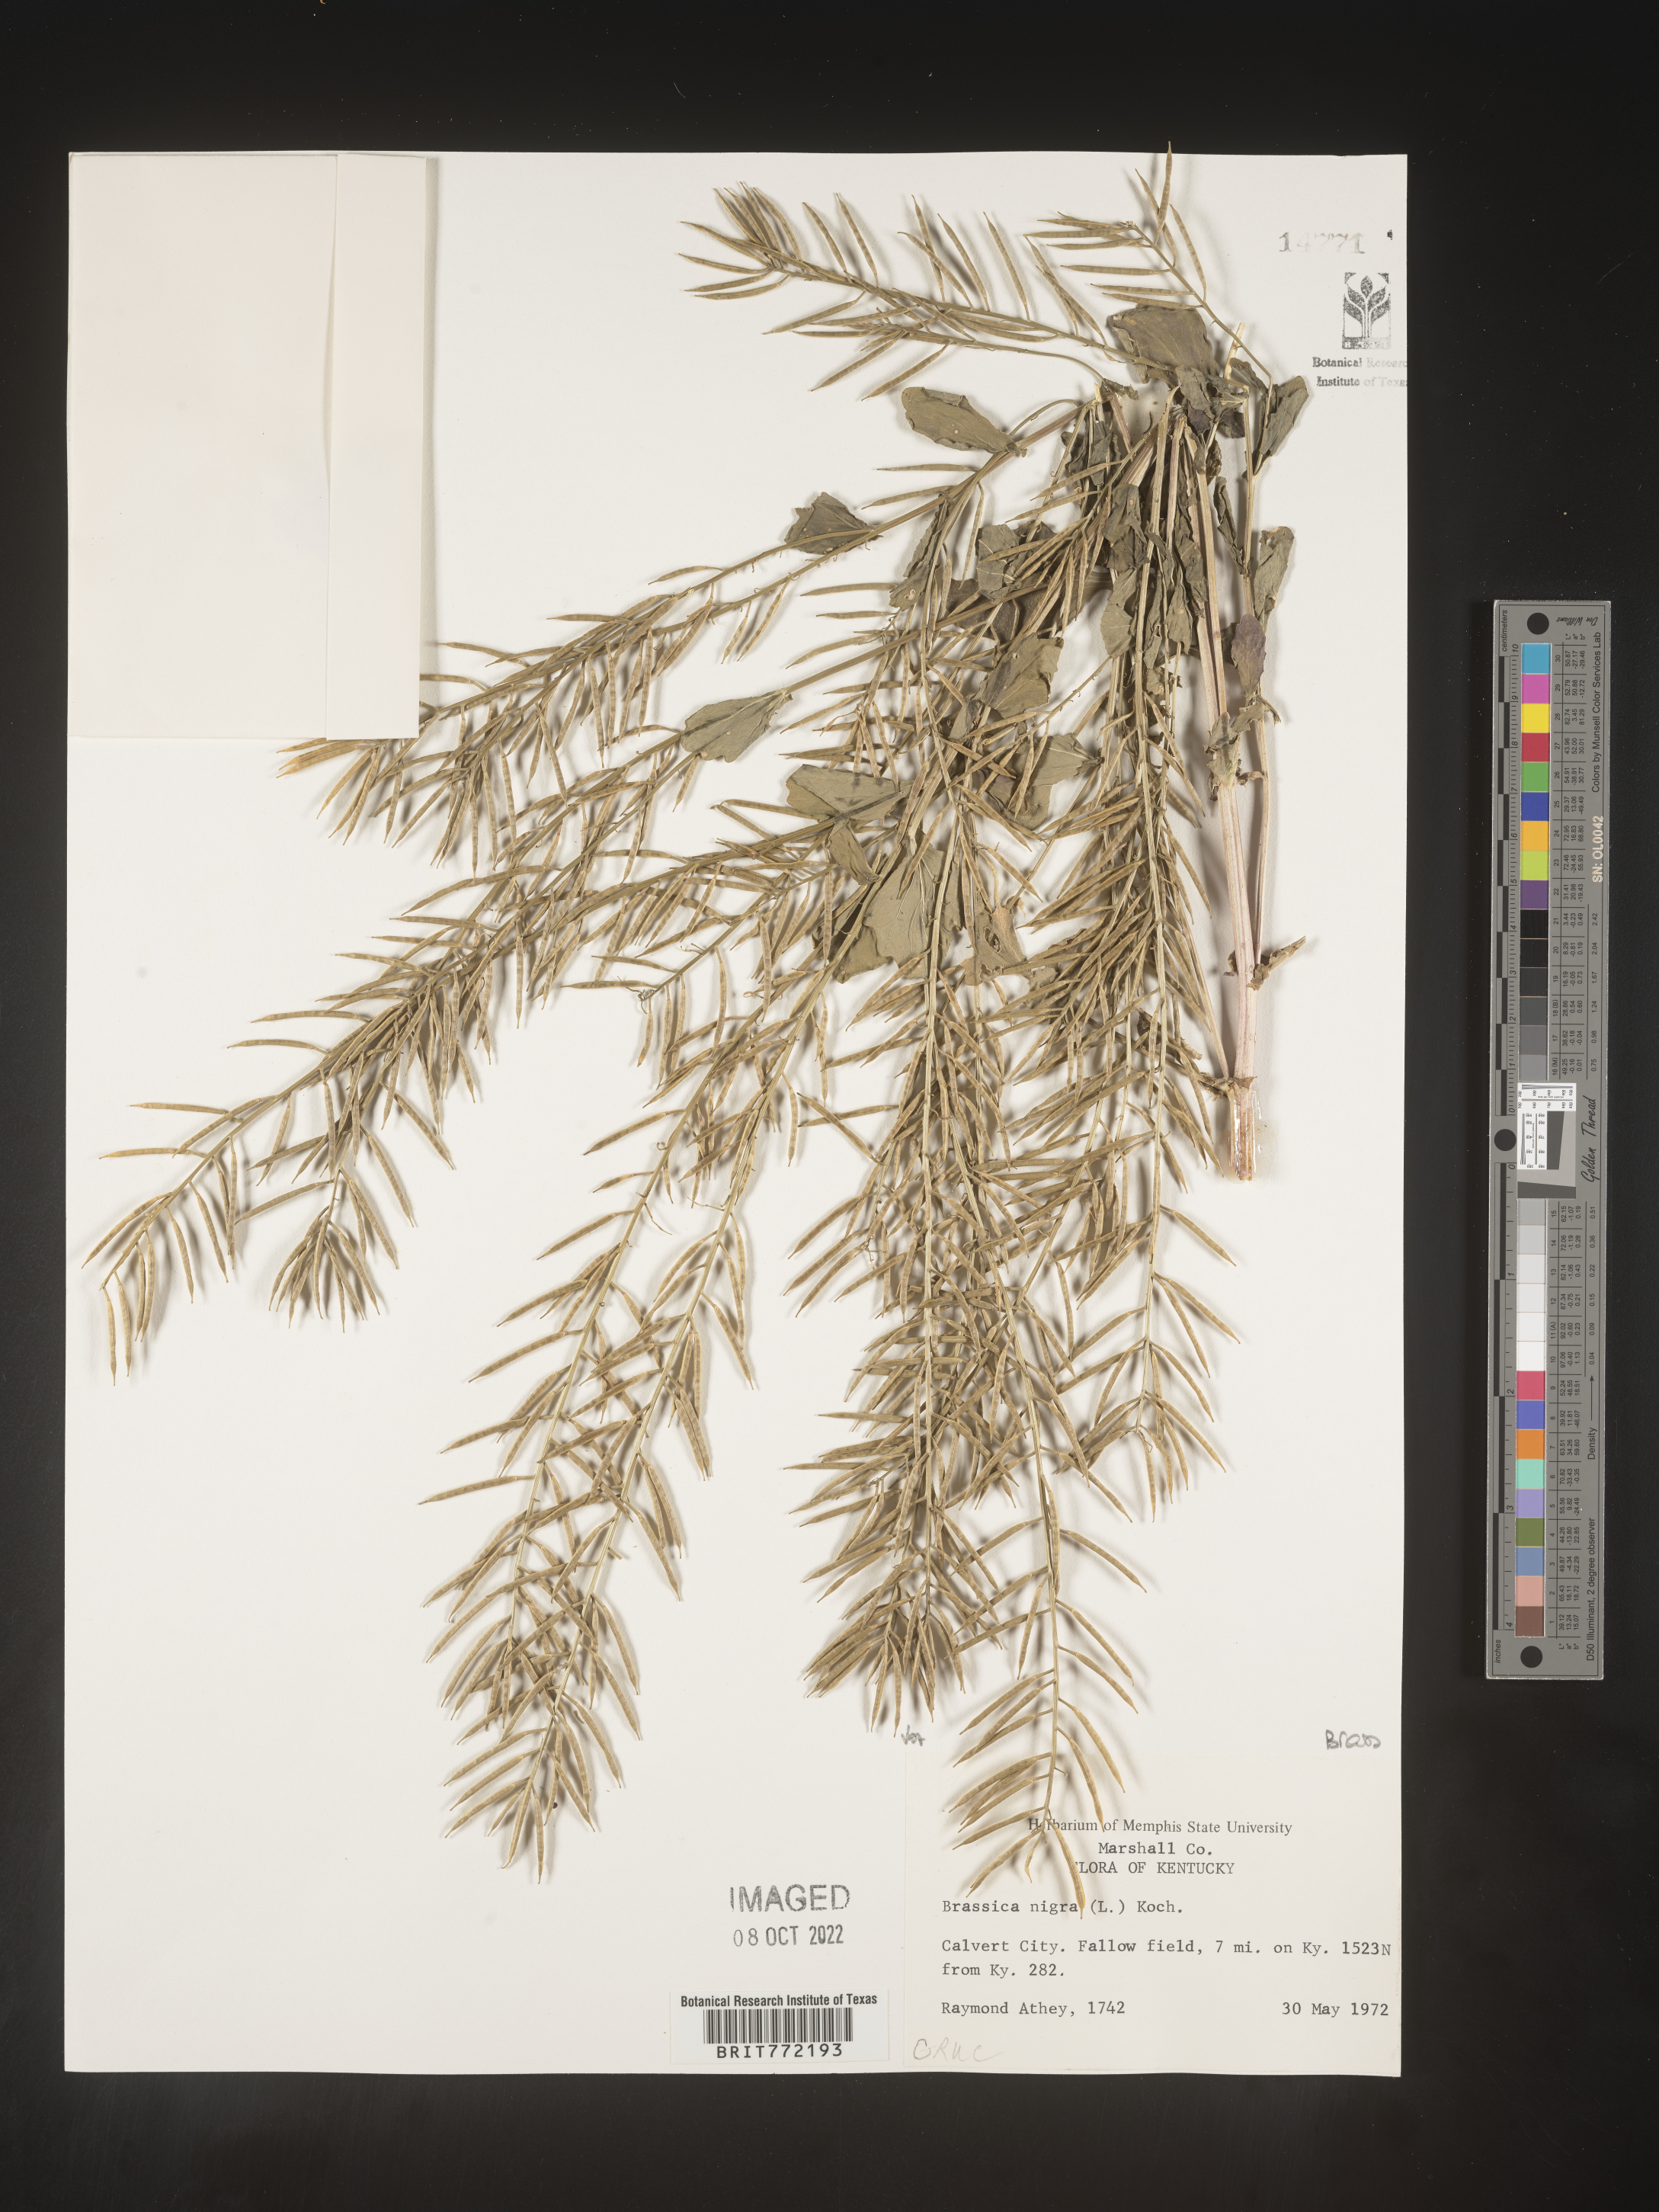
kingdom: Plantae
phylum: Tracheophyta
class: Magnoliopsida
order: Brassicales
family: Brassicaceae
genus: Brassica
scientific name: Brassica nigra
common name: Black mustard
